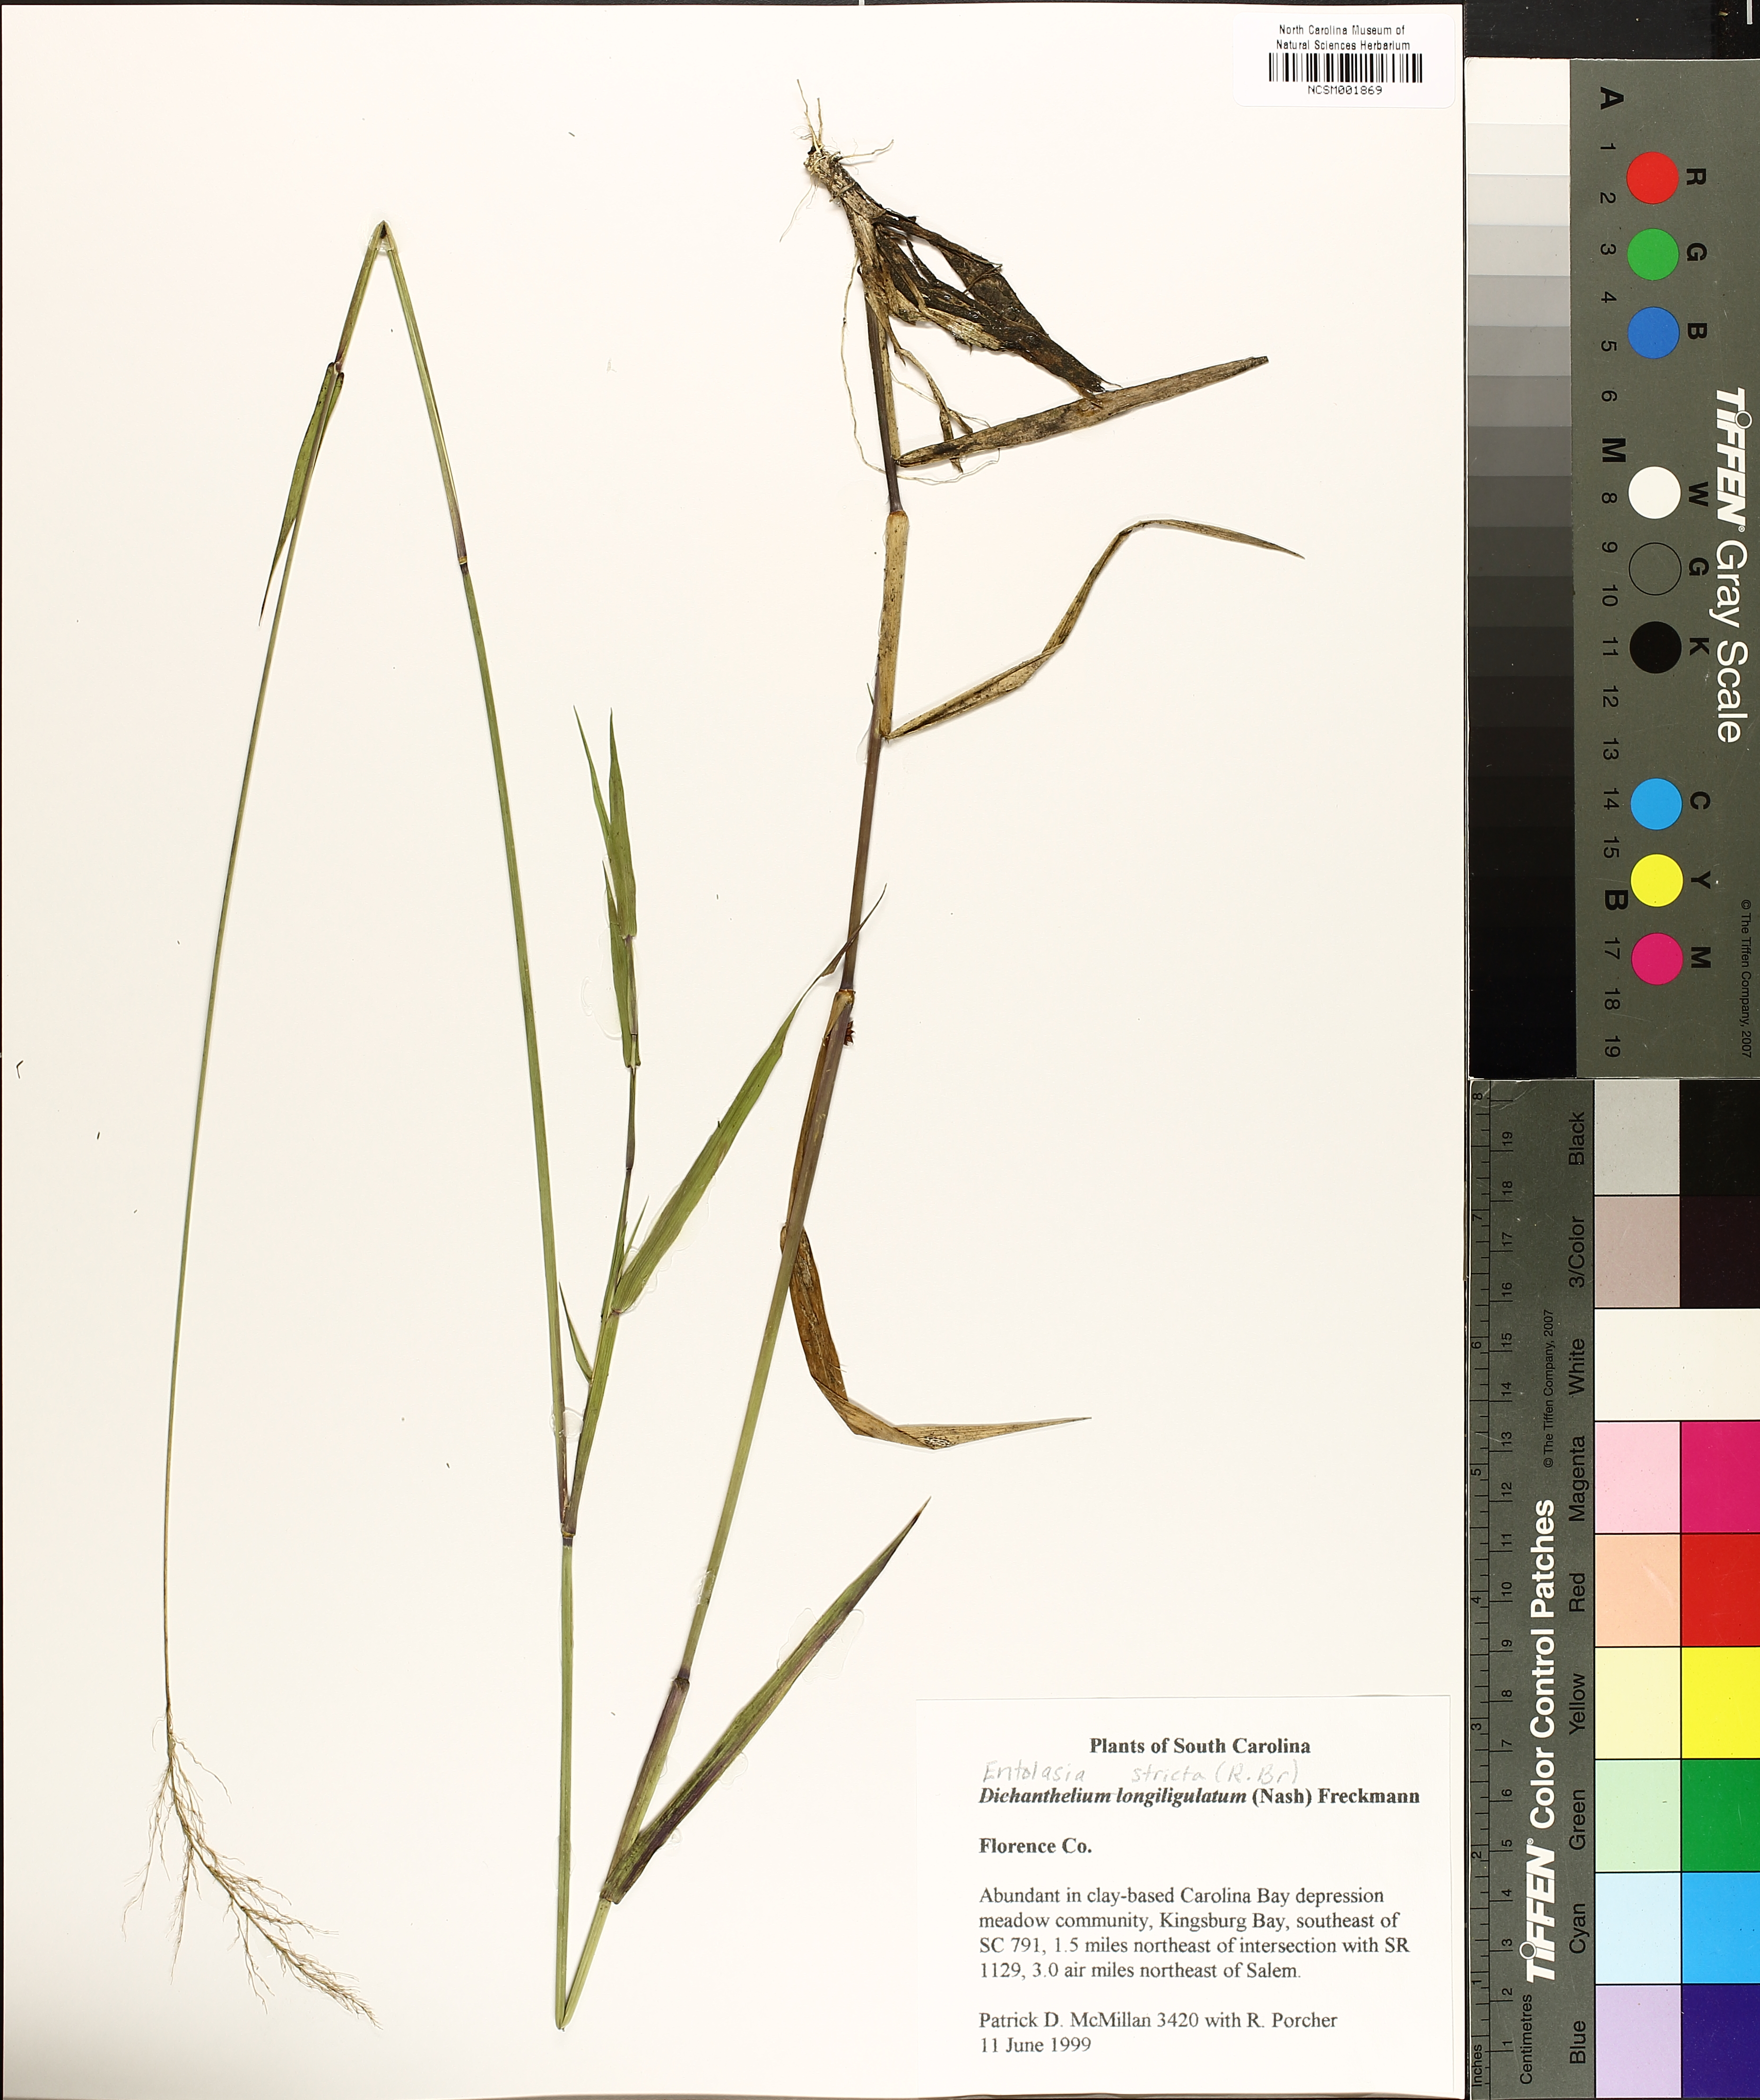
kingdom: Plantae
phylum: Tracheophyta
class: Liliopsida
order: Poales
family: Poaceae
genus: Dichanthelium
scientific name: Dichanthelium longiligulatum
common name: Long-ligule panicgrass
